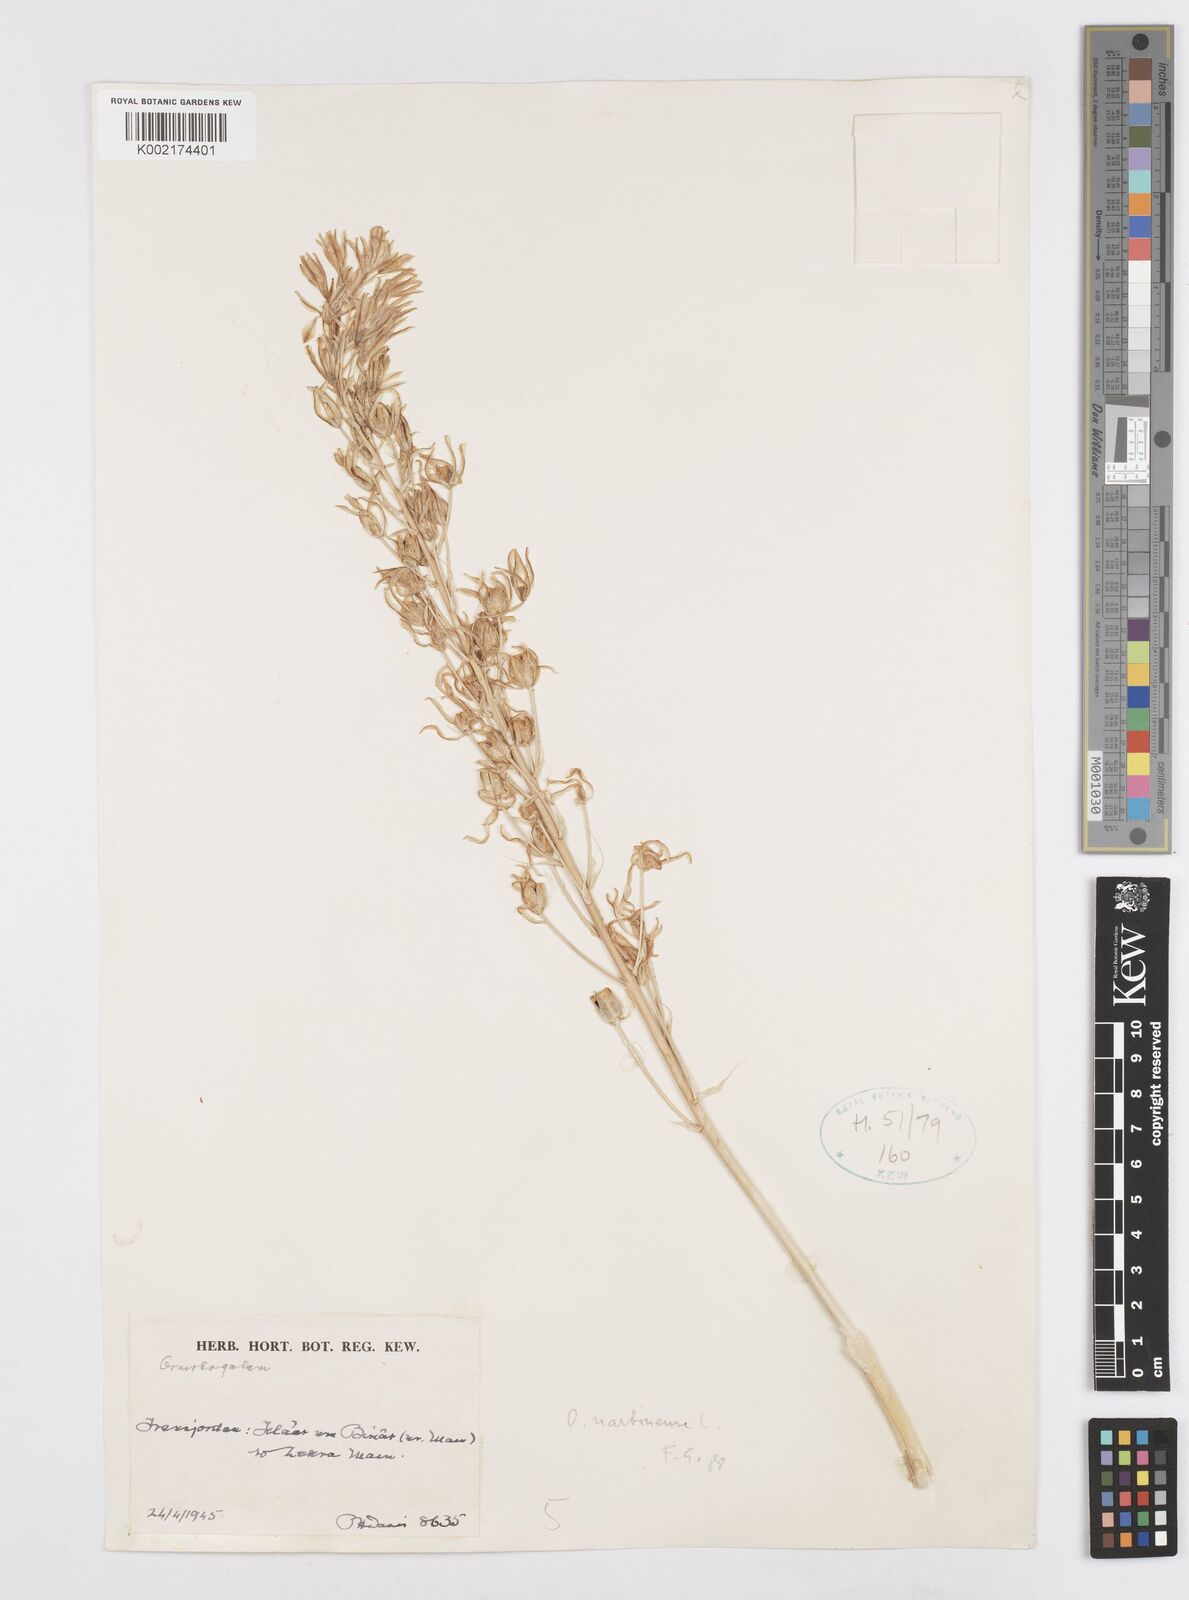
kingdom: Plantae
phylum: Tracheophyta
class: Liliopsida
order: Asparagales
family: Asparagaceae
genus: Ornithogalum
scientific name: Ornithogalum narbonense
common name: Bath-asparagus
